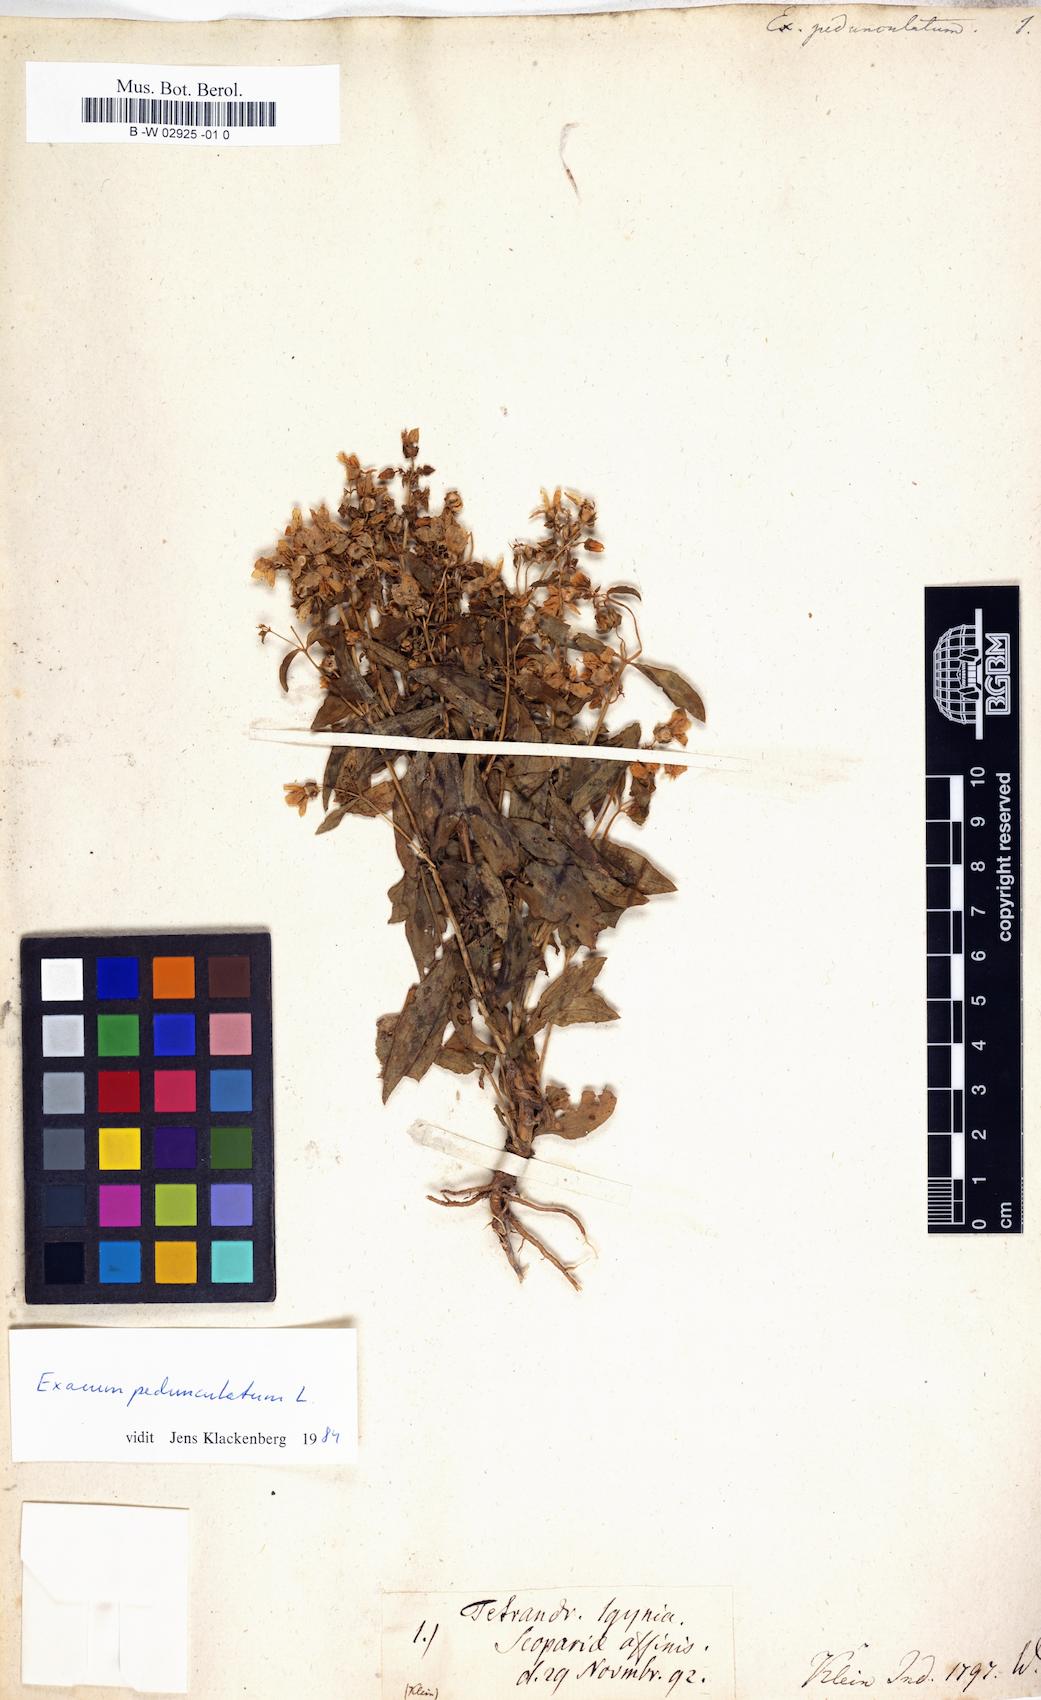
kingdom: Plantae
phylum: Tracheophyta
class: Magnoliopsida
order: Gentianales
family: Gentianaceae
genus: Exacum
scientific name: Exacum pedunculatum
